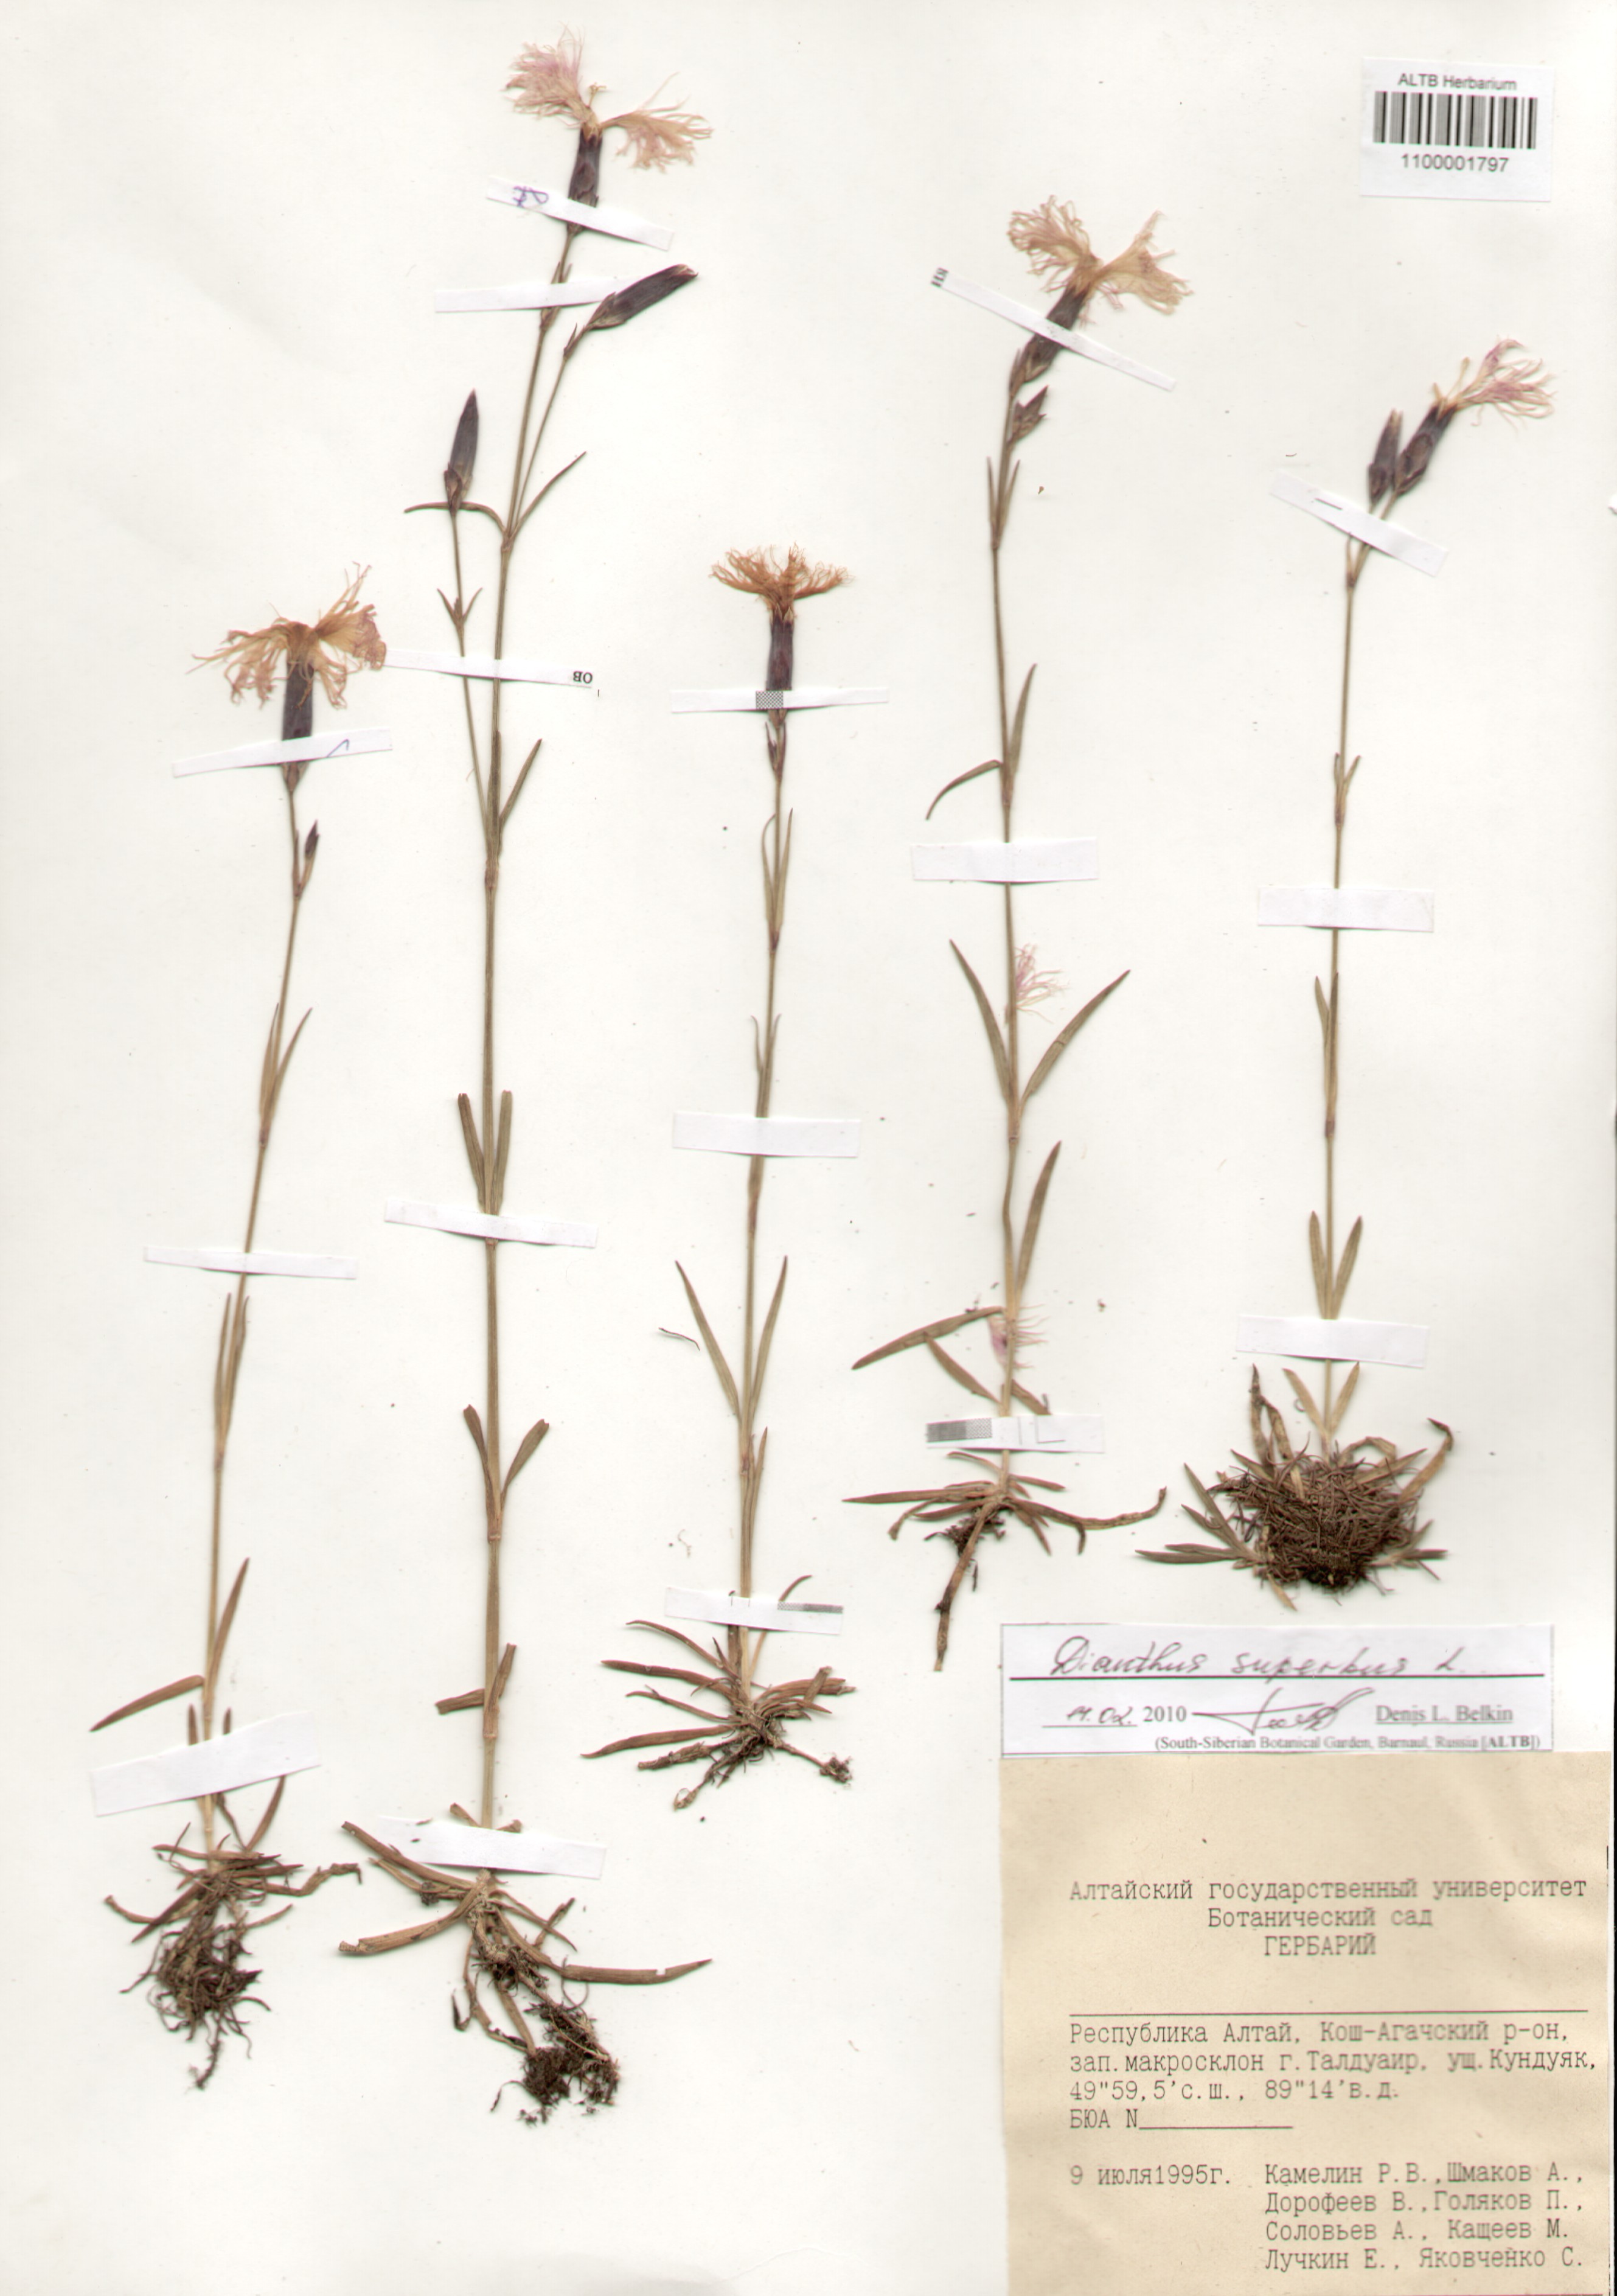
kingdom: Plantae
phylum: Tracheophyta
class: Magnoliopsida
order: Caryophyllales
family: Caryophyllaceae
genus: Dianthus
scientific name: Dianthus superbus
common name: Fringed pink
